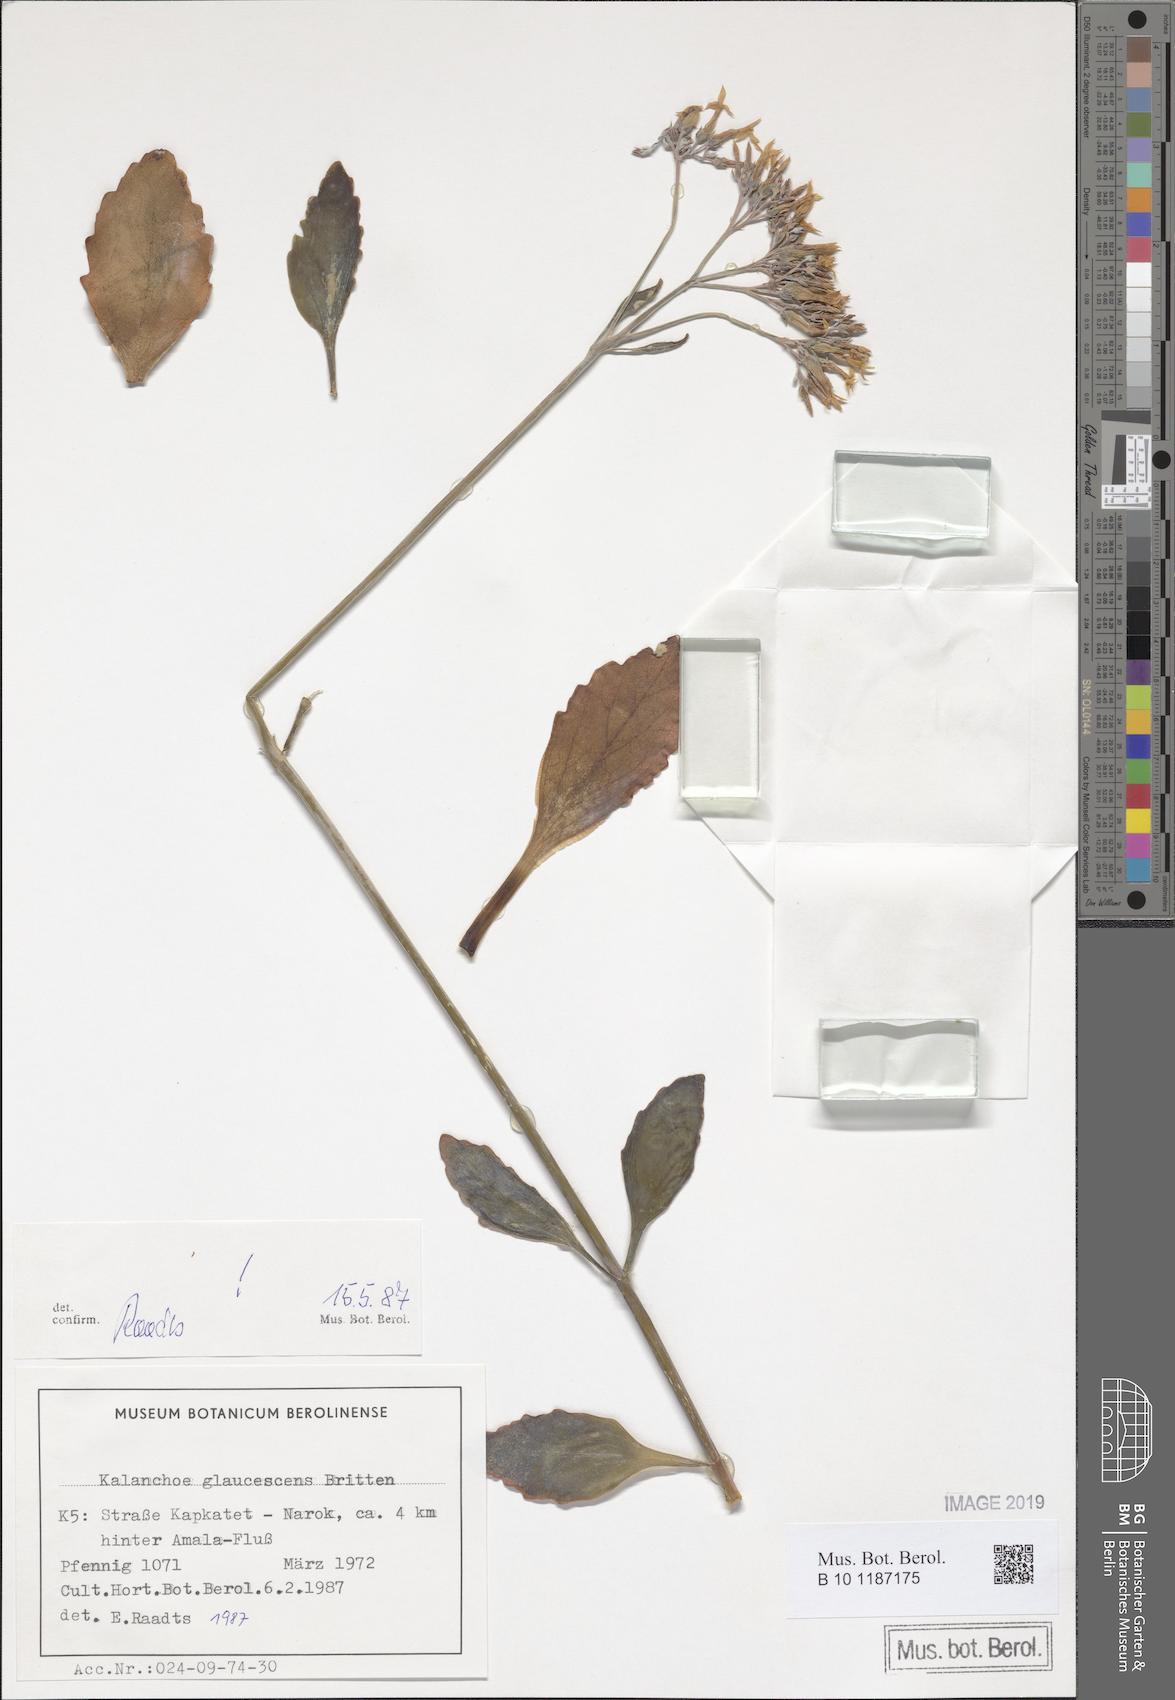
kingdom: Plantae
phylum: Tracheophyta
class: Magnoliopsida
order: Saxifragales
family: Crassulaceae
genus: Kalanchoe
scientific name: Kalanchoe glaucescens
